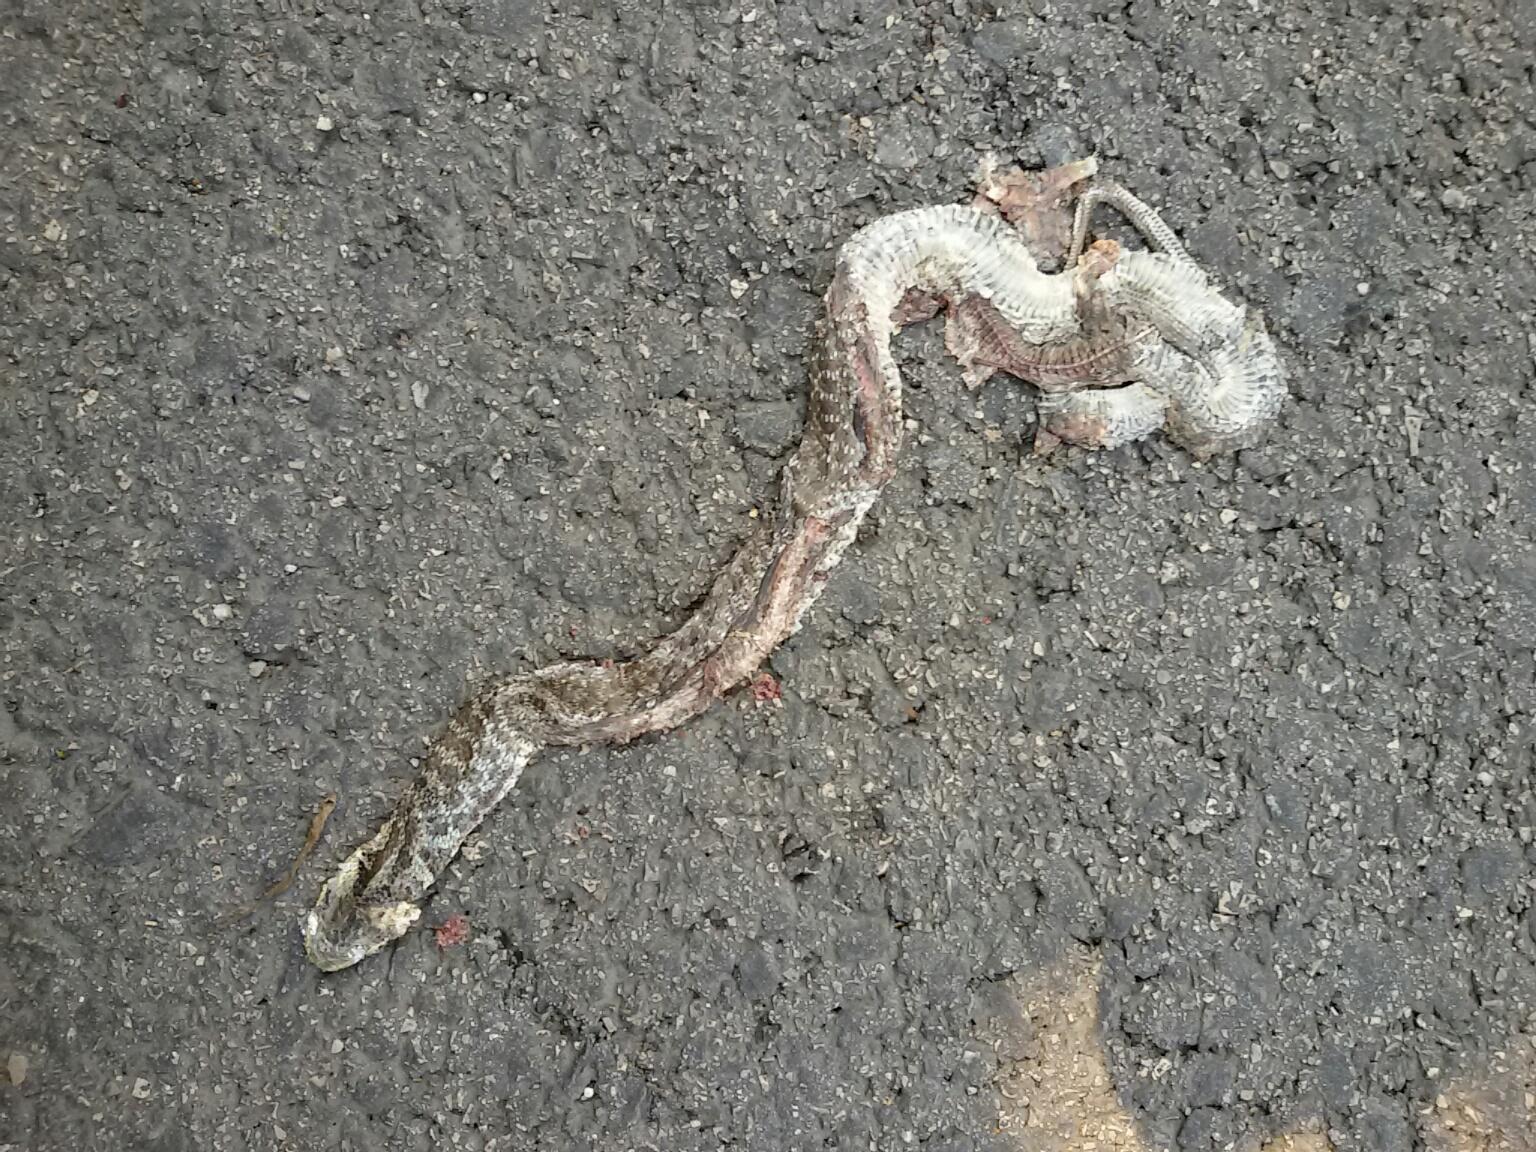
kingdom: Animalia
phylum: Chordata
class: Squamata
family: Colubridae
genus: Zamenis
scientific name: Zamenis longissimus
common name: Aesculapean snake
